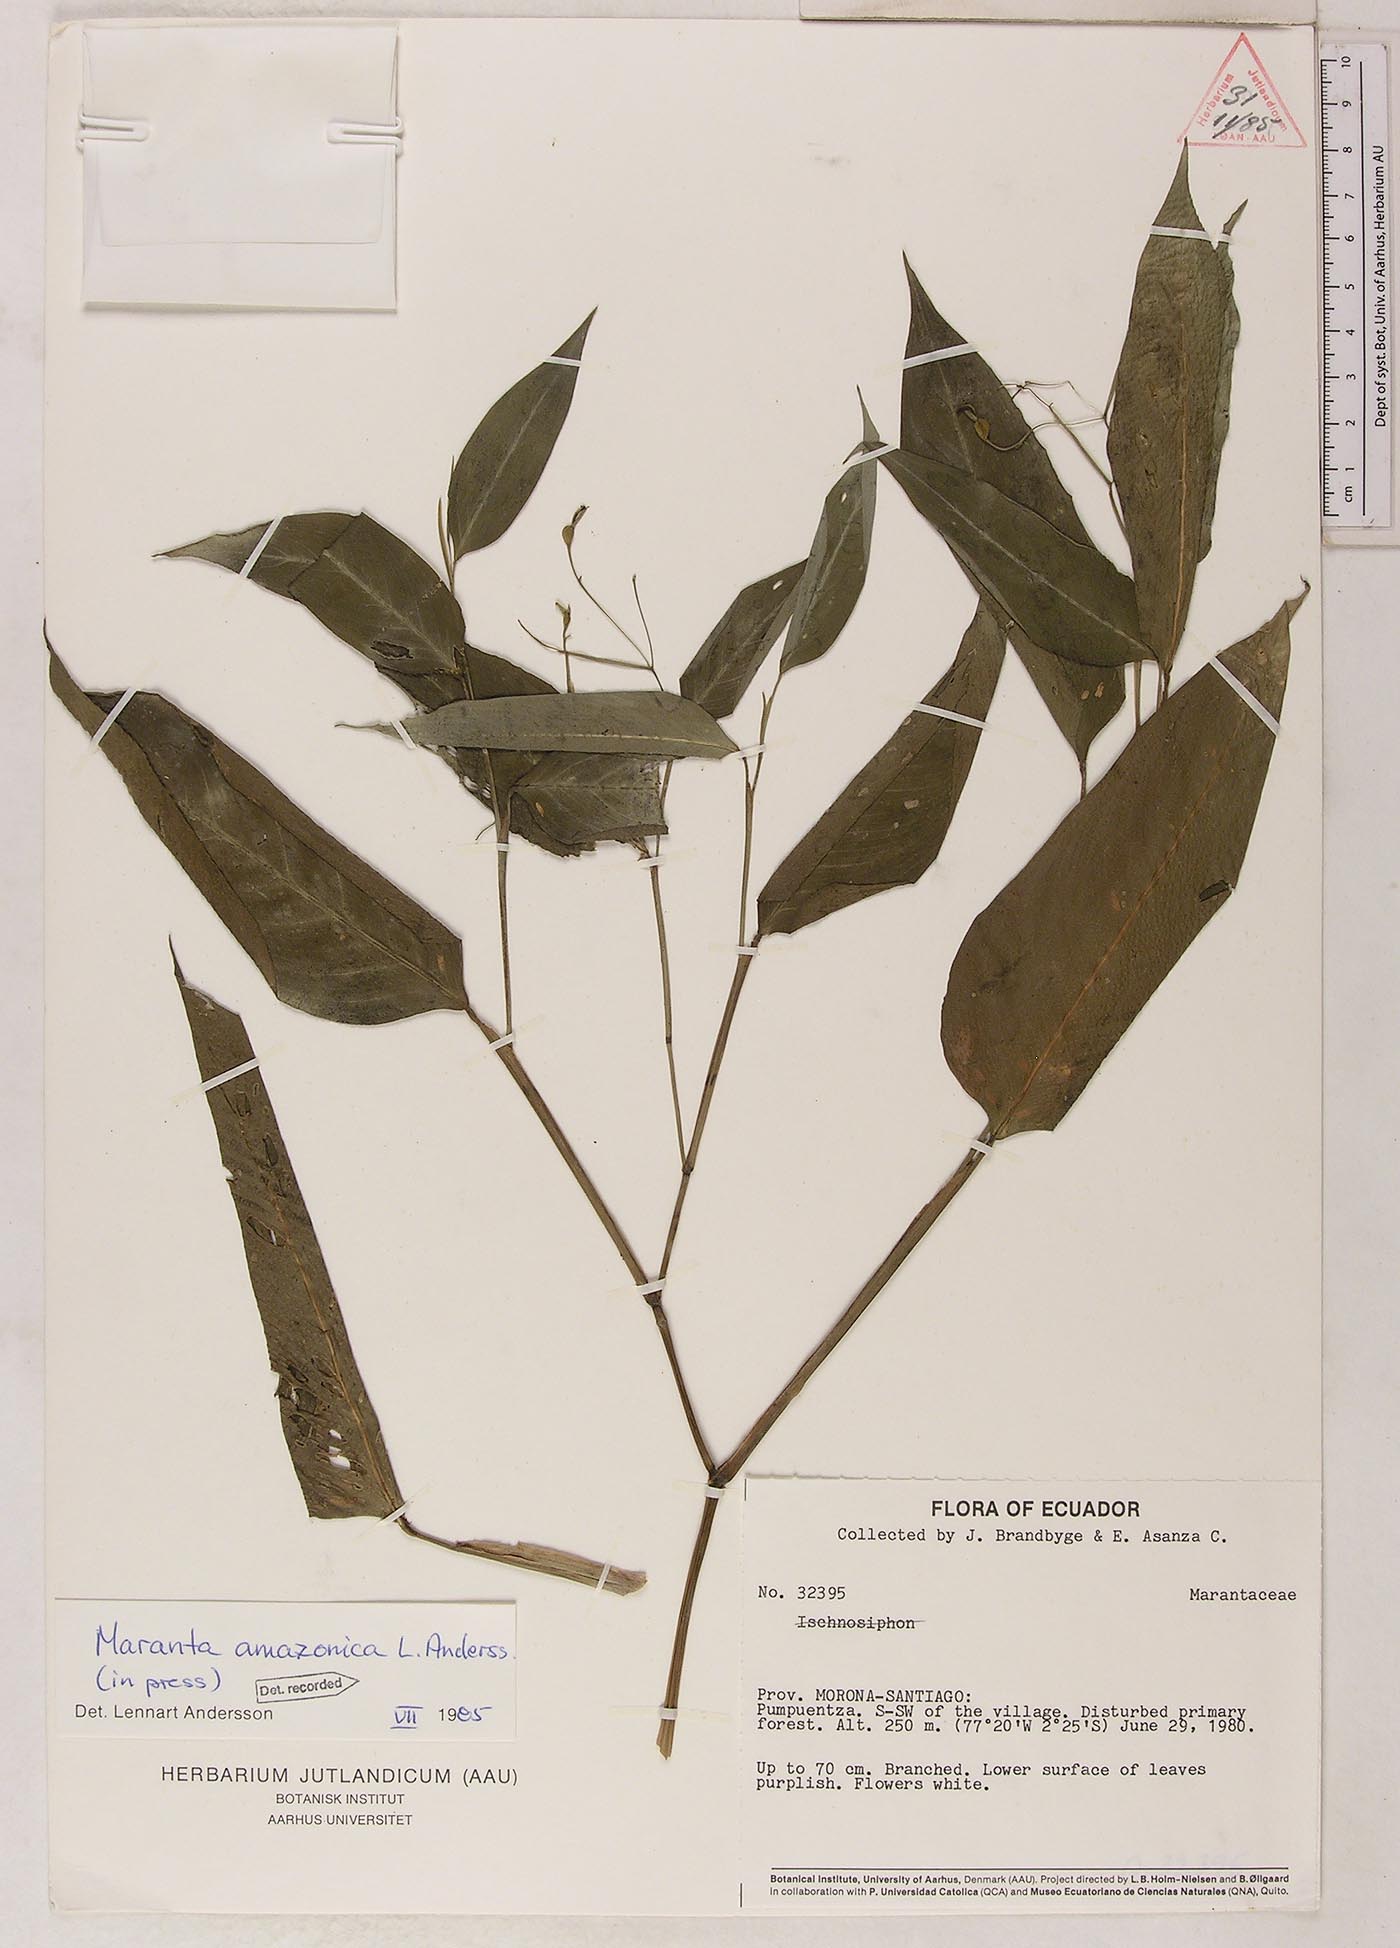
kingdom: Plantae
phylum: Tracheophyta
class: Liliopsida
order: Zingiberales
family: Marantaceae
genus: Maranta
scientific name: Maranta amazonica
